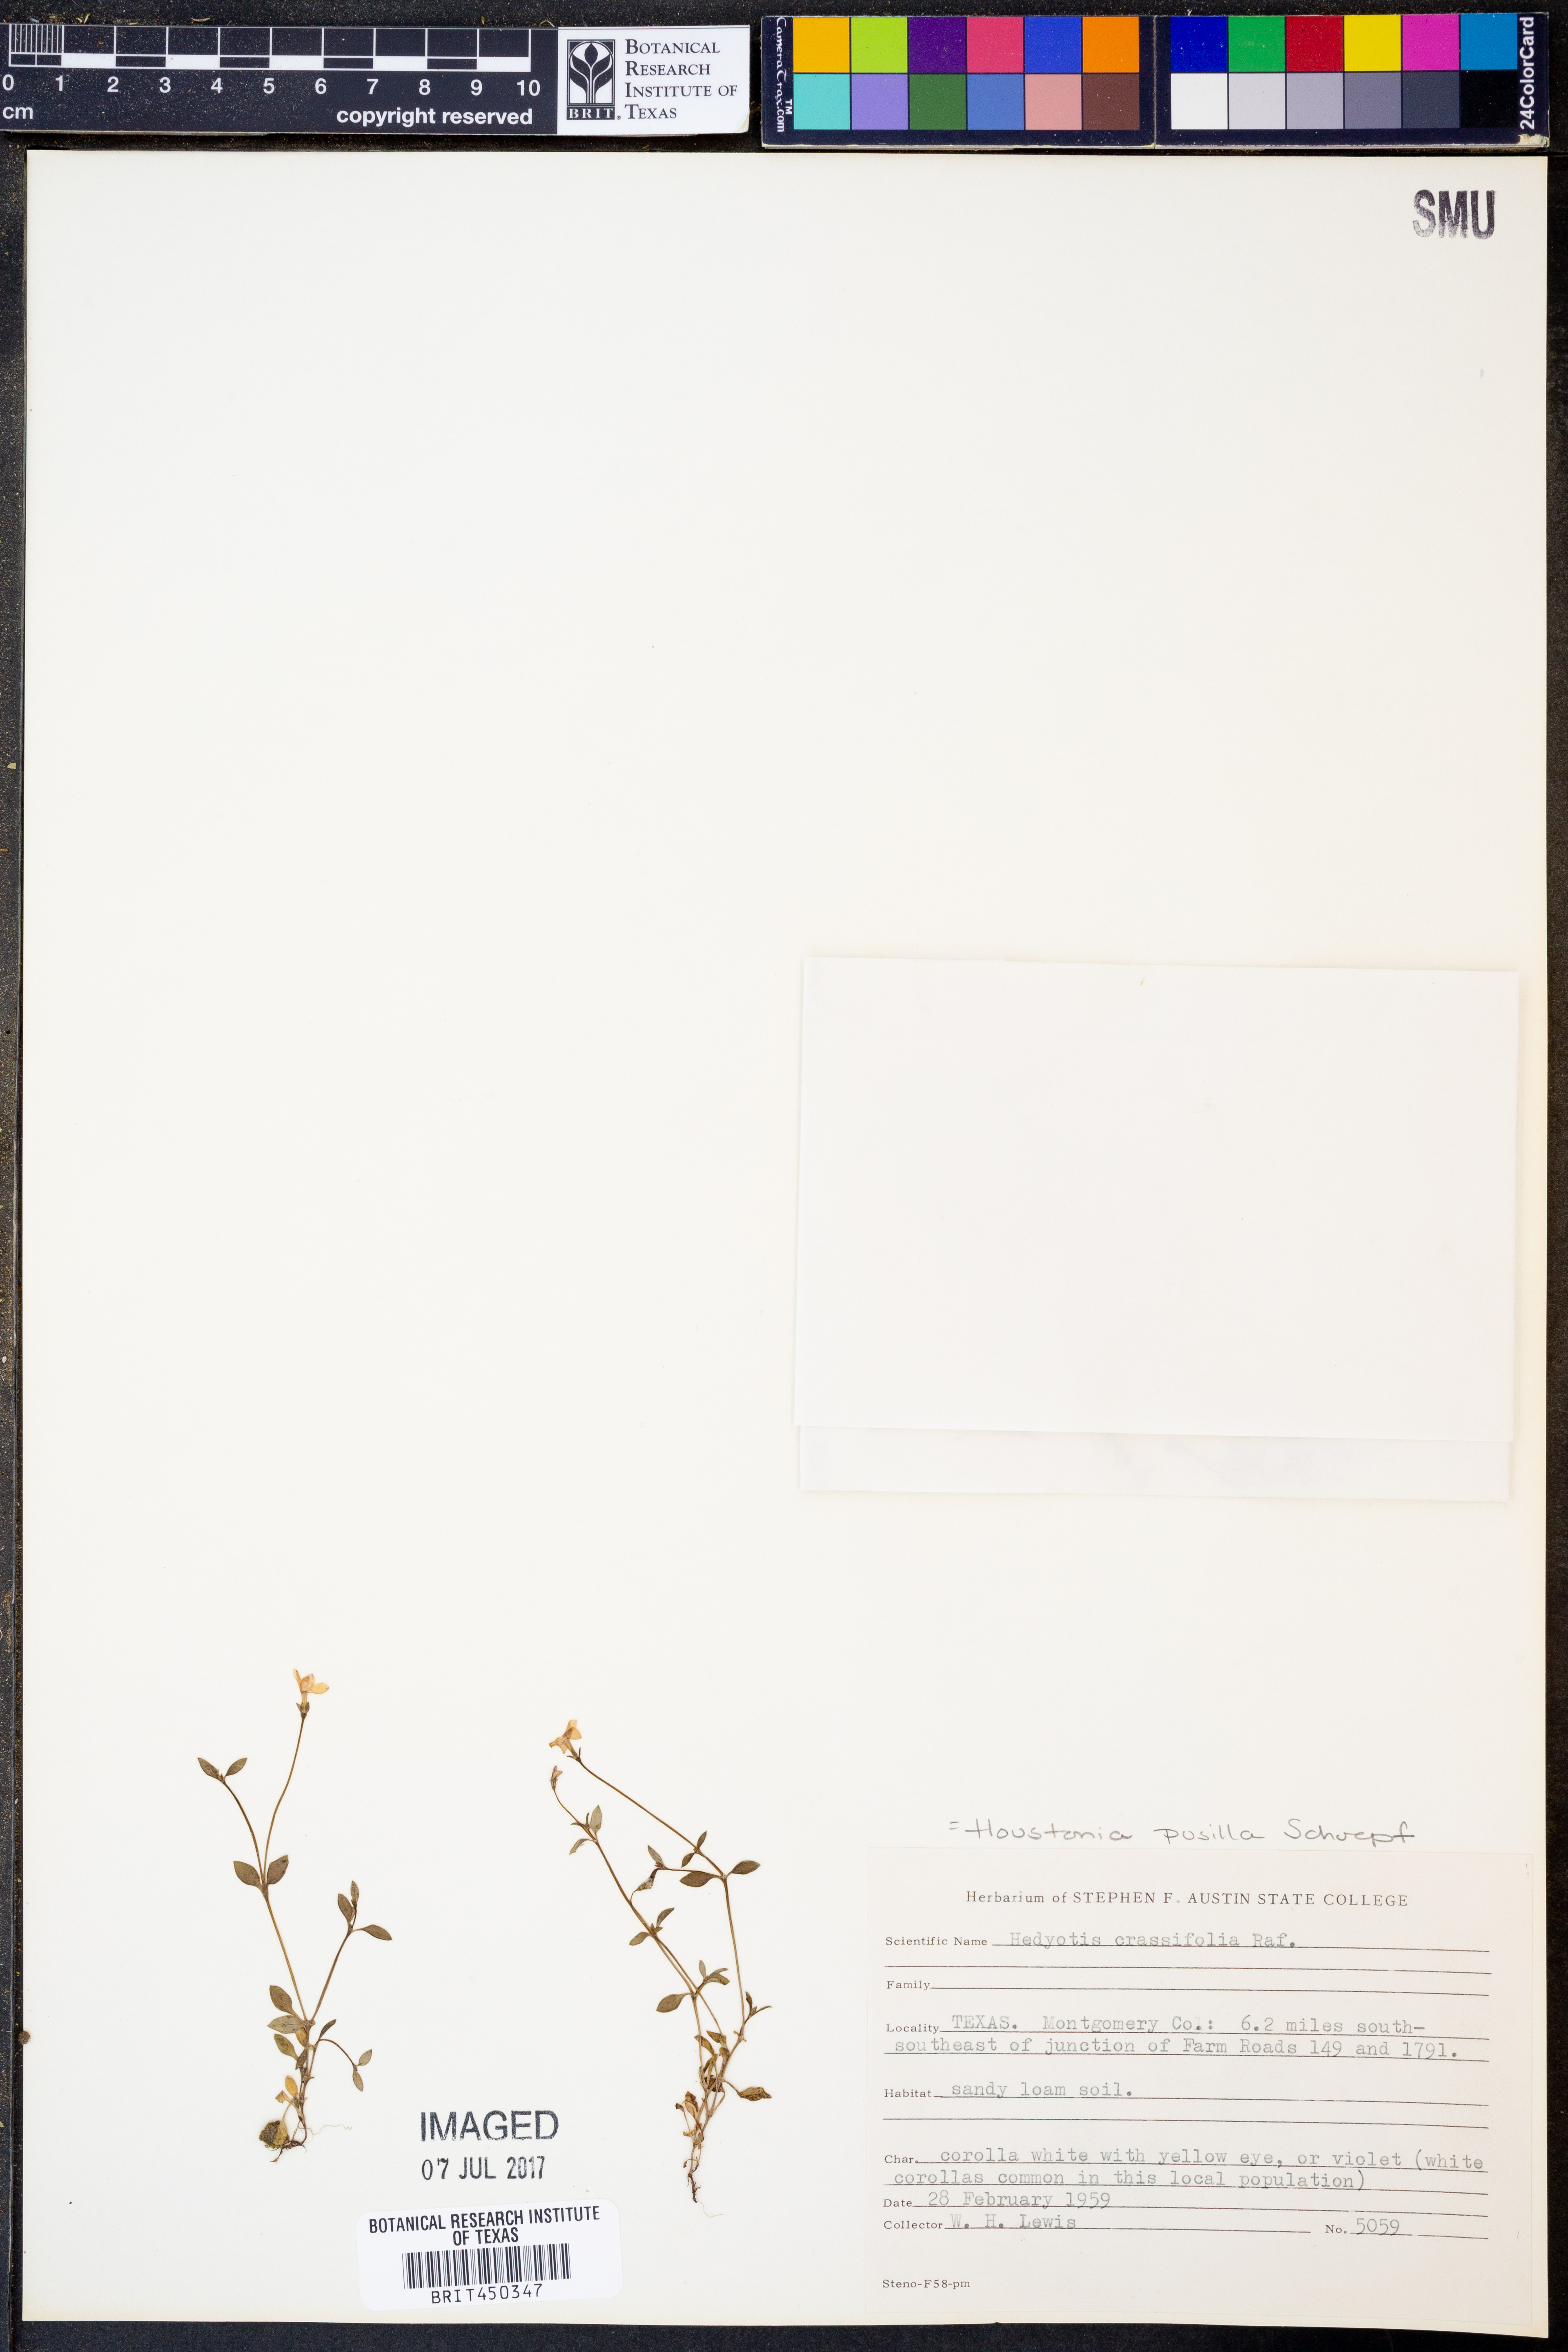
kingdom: Plantae
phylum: Tracheophyta
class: Magnoliopsida
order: Gentianales
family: Rubiaceae
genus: Houstonia
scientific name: Houstonia pusilla
